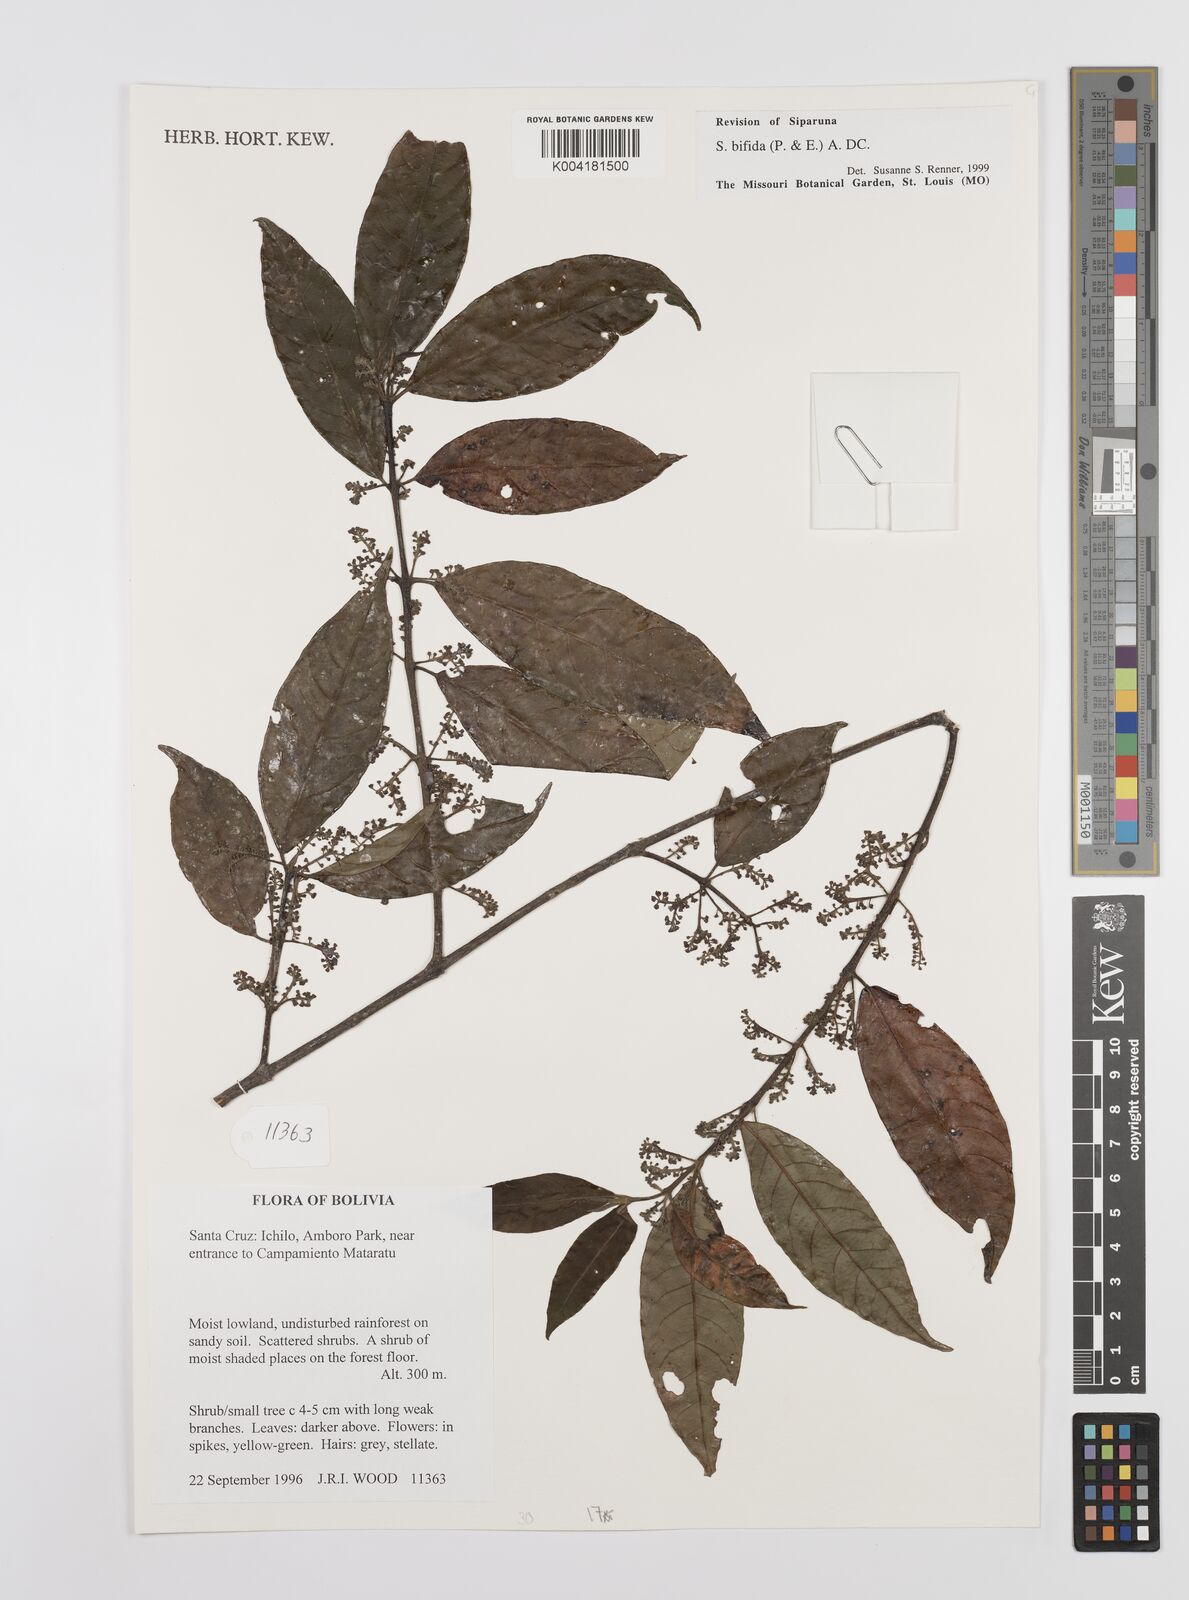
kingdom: Plantae
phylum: Tracheophyta
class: Magnoliopsida
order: Laurales
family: Siparunaceae
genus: Siparuna
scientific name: Siparuna bifida
